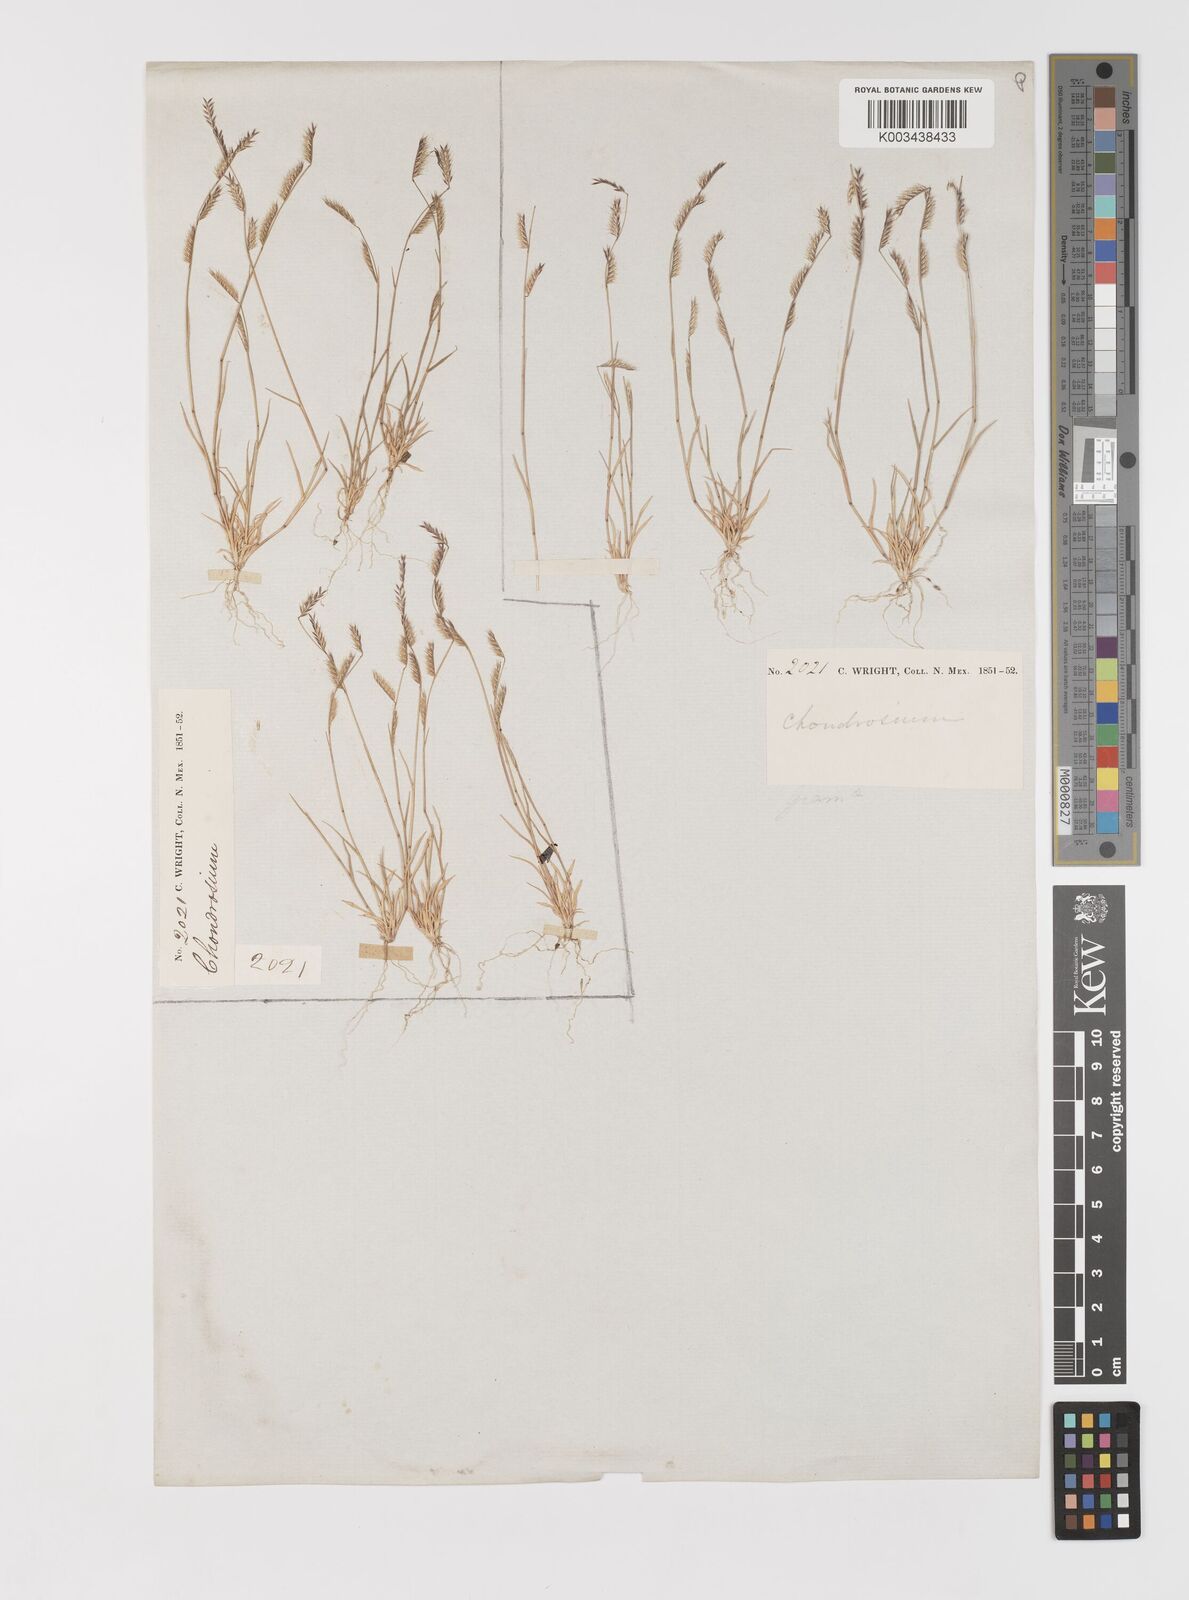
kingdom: Plantae
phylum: Tracheophyta
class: Liliopsida
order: Poales
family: Poaceae
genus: Bouteloua
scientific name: Bouteloua trifida
